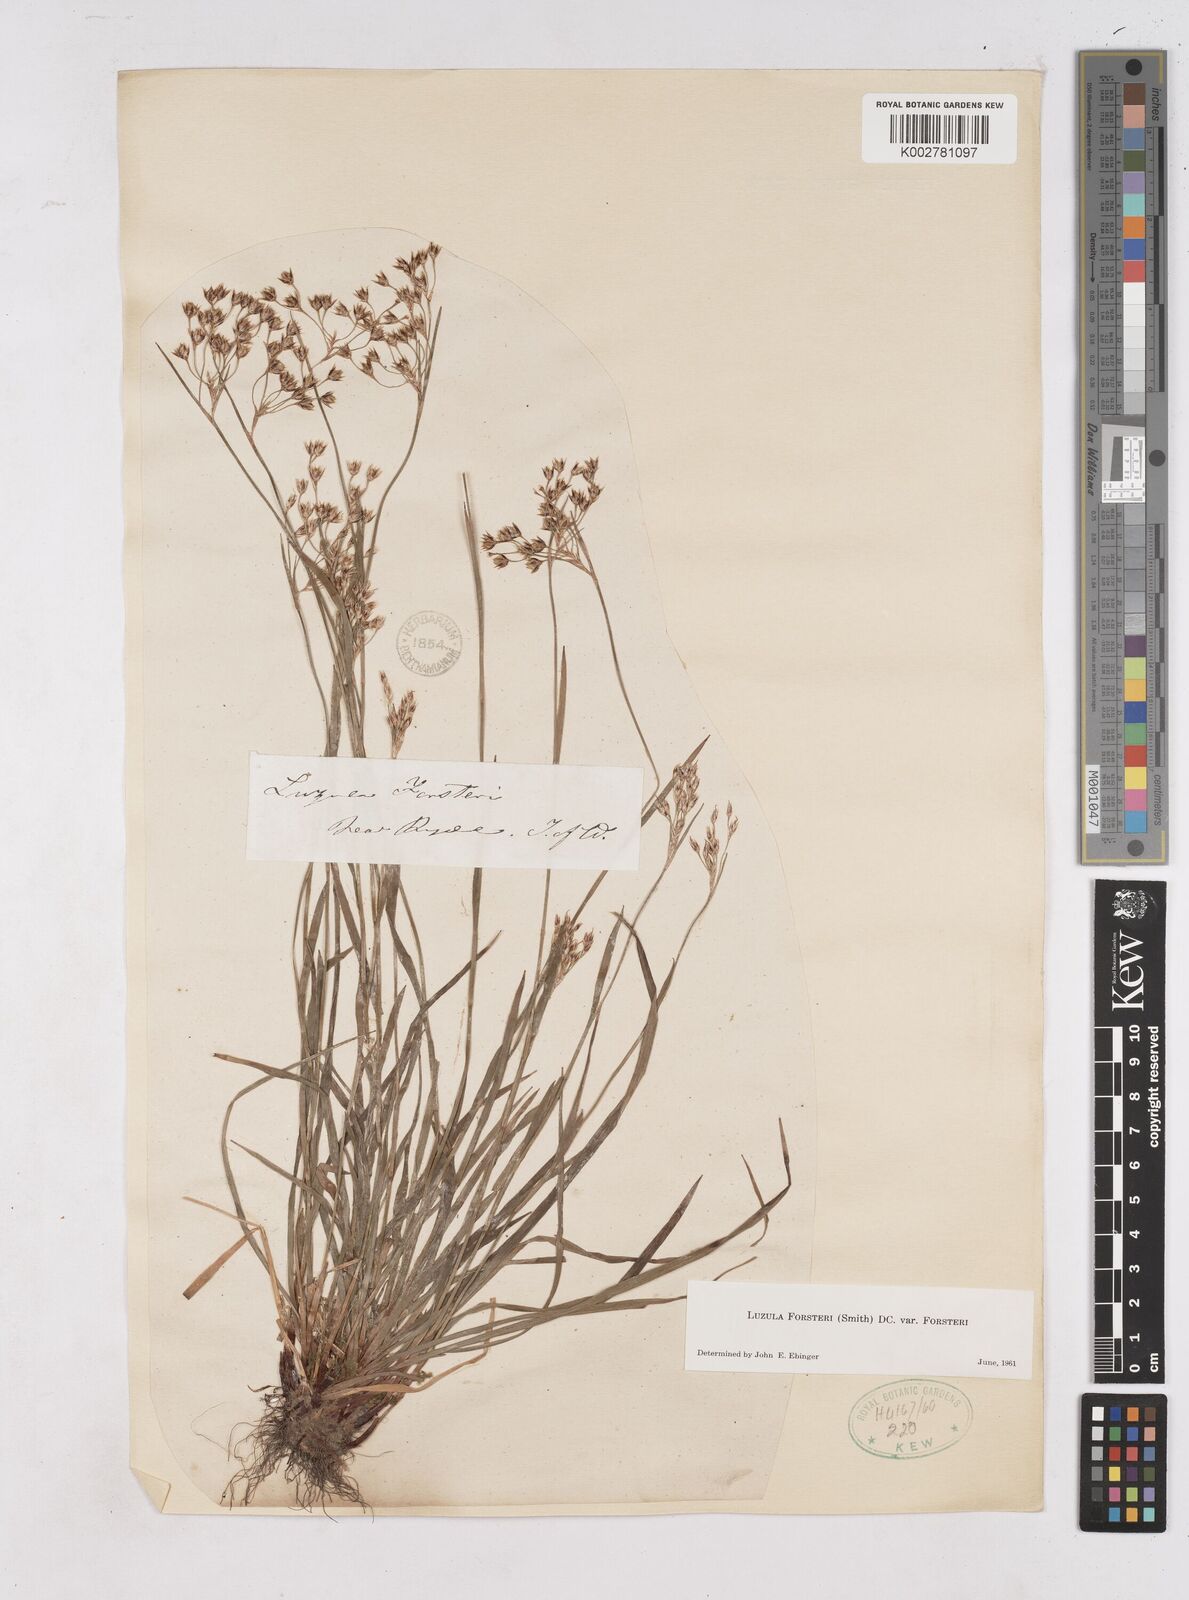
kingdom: Plantae
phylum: Tracheophyta
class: Liliopsida
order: Poales
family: Juncaceae
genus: Luzula
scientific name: Luzula forsteri
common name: Southern wood-rush
